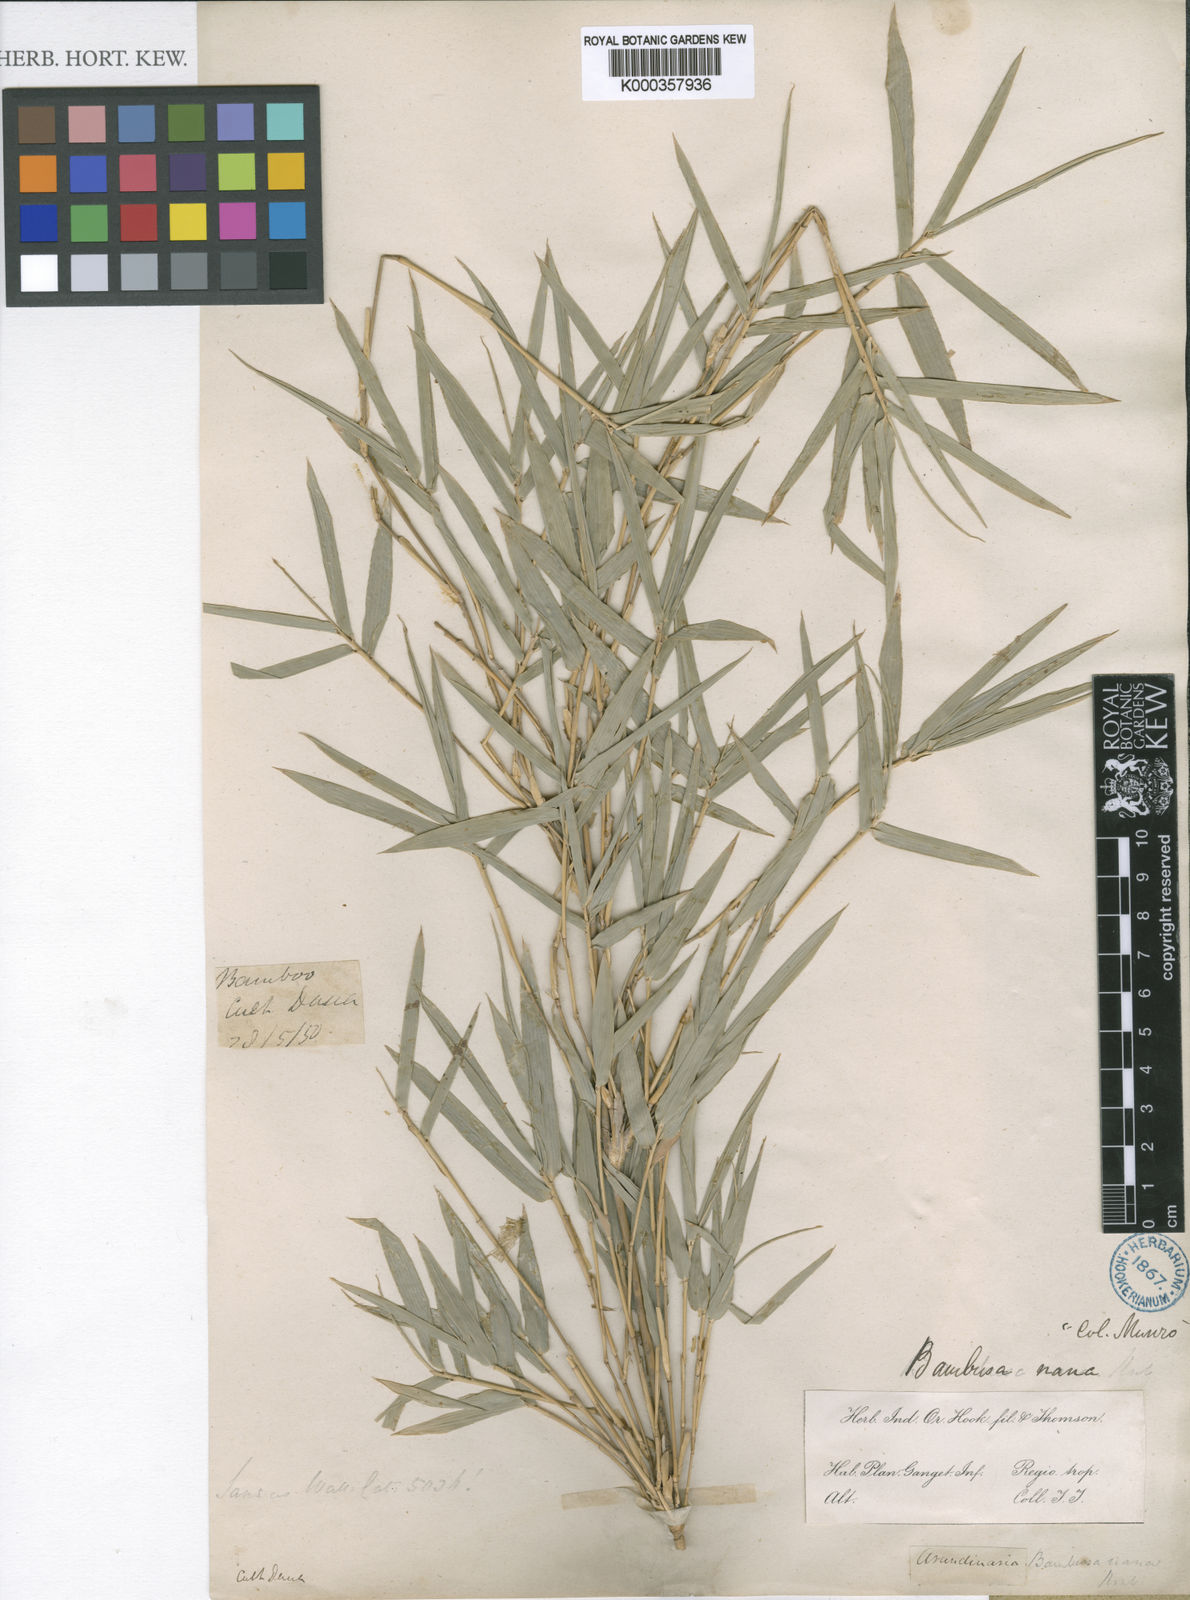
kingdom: Plantae
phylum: Tracheophyta
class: Liliopsida
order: Poales
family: Poaceae
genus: Bambusa
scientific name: Bambusa multiplex
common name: Hedge bamboo
